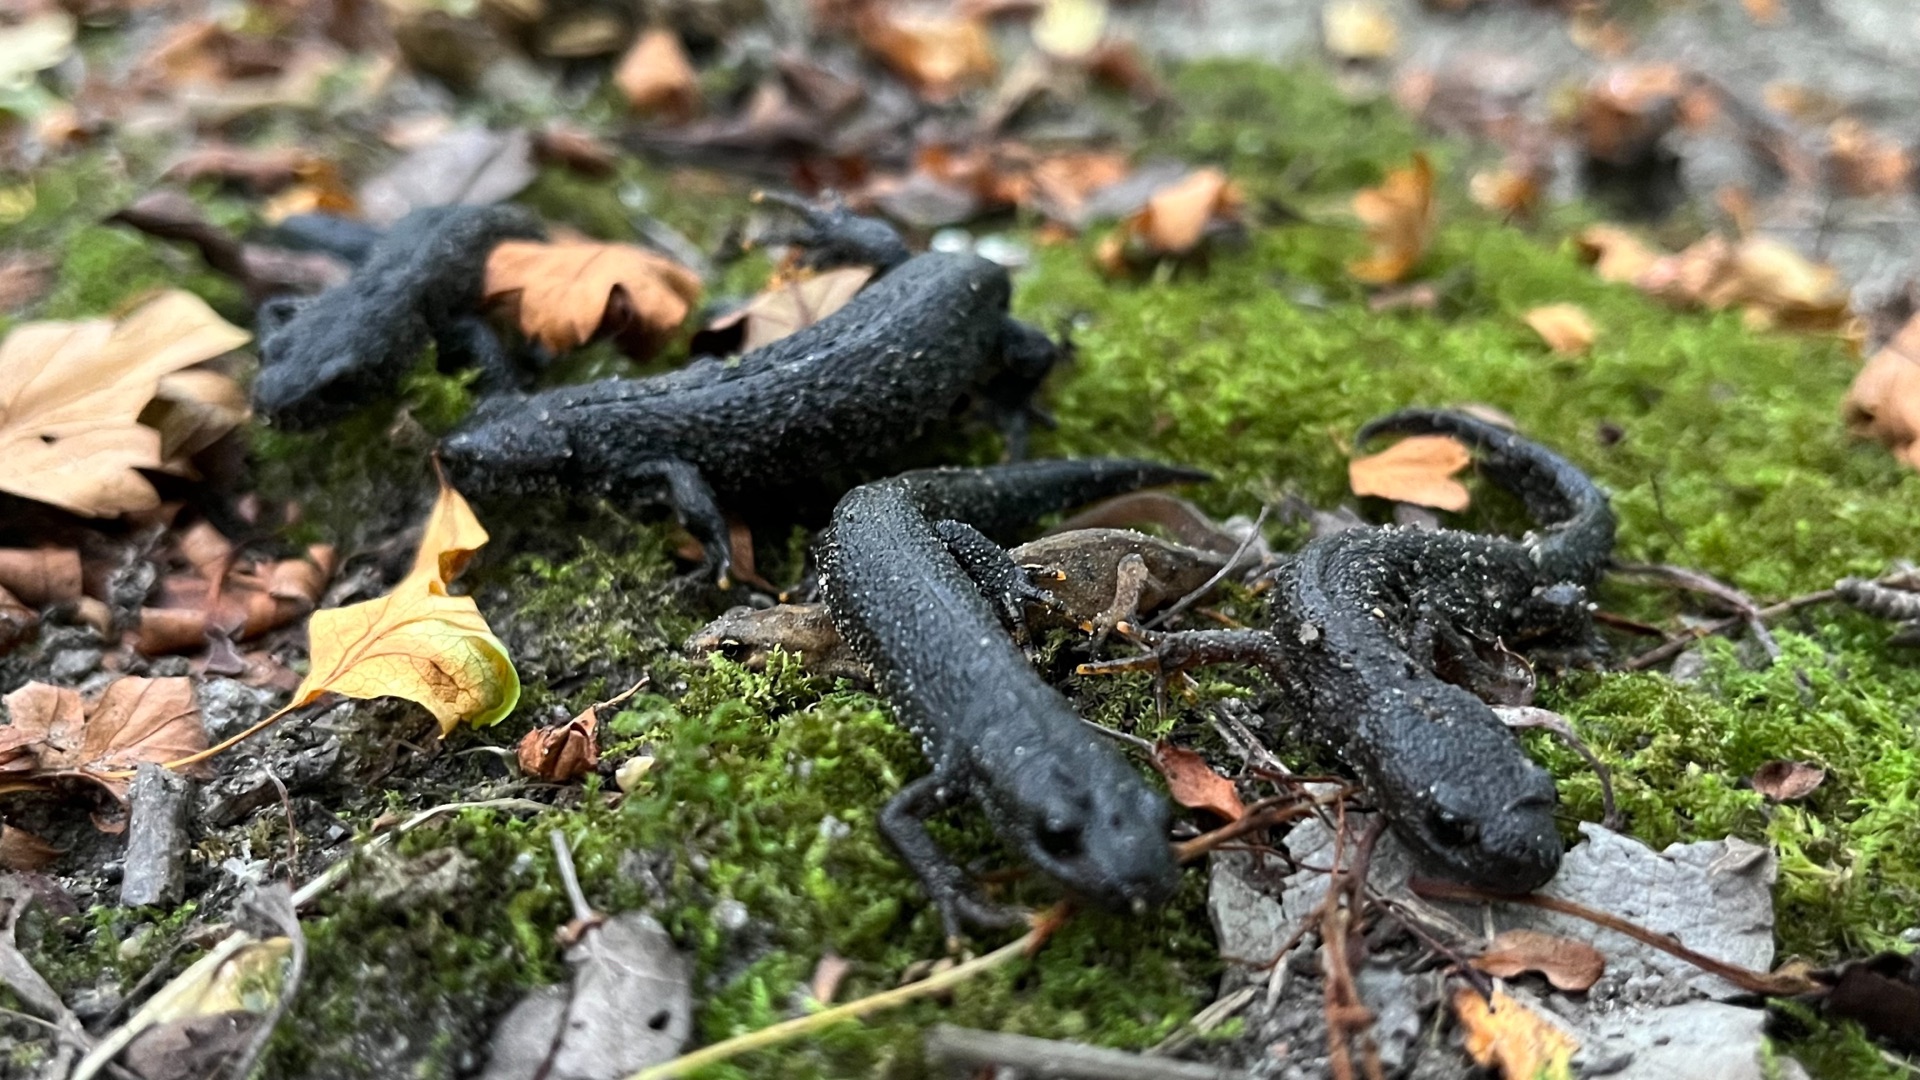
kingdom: Animalia
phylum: Chordata
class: Amphibia
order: Caudata
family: Salamandridae
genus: Triturus
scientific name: Triturus cristatus
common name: Stor vandsalamander
